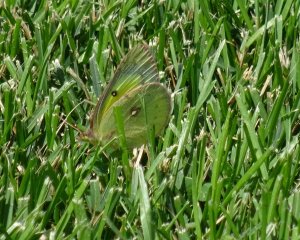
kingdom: Animalia
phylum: Arthropoda
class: Insecta
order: Lepidoptera
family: Pieridae
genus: Colias
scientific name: Colias philodice
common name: Clouded Sulphur
